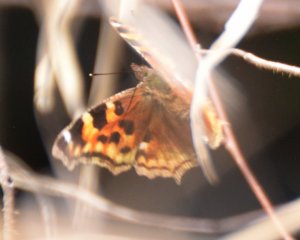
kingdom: Animalia
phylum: Arthropoda
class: Insecta
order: Lepidoptera
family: Nymphalidae
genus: Polygonia
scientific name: Polygonia vaualbum
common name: Compton Tortoiseshell
